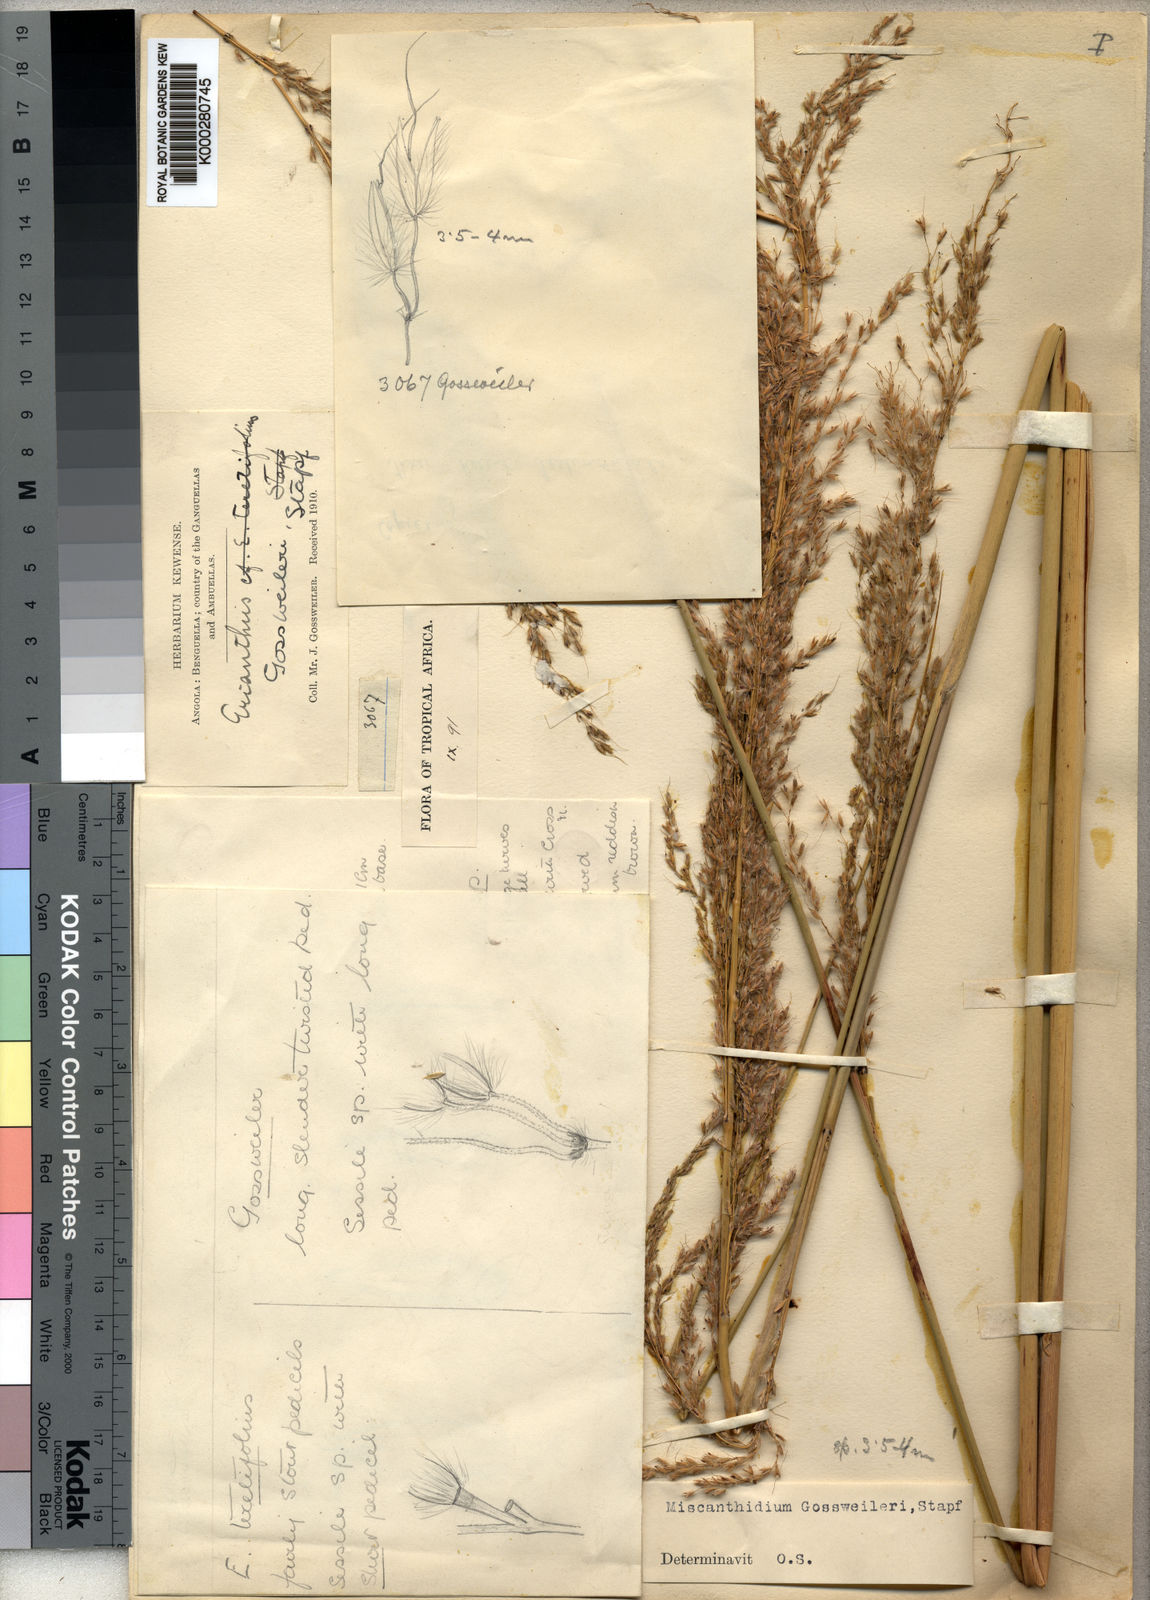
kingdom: Plantae
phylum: Tracheophyta
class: Liliopsida
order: Poales
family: Poaceae
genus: Miscanthidium
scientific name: Miscanthidium junceum
